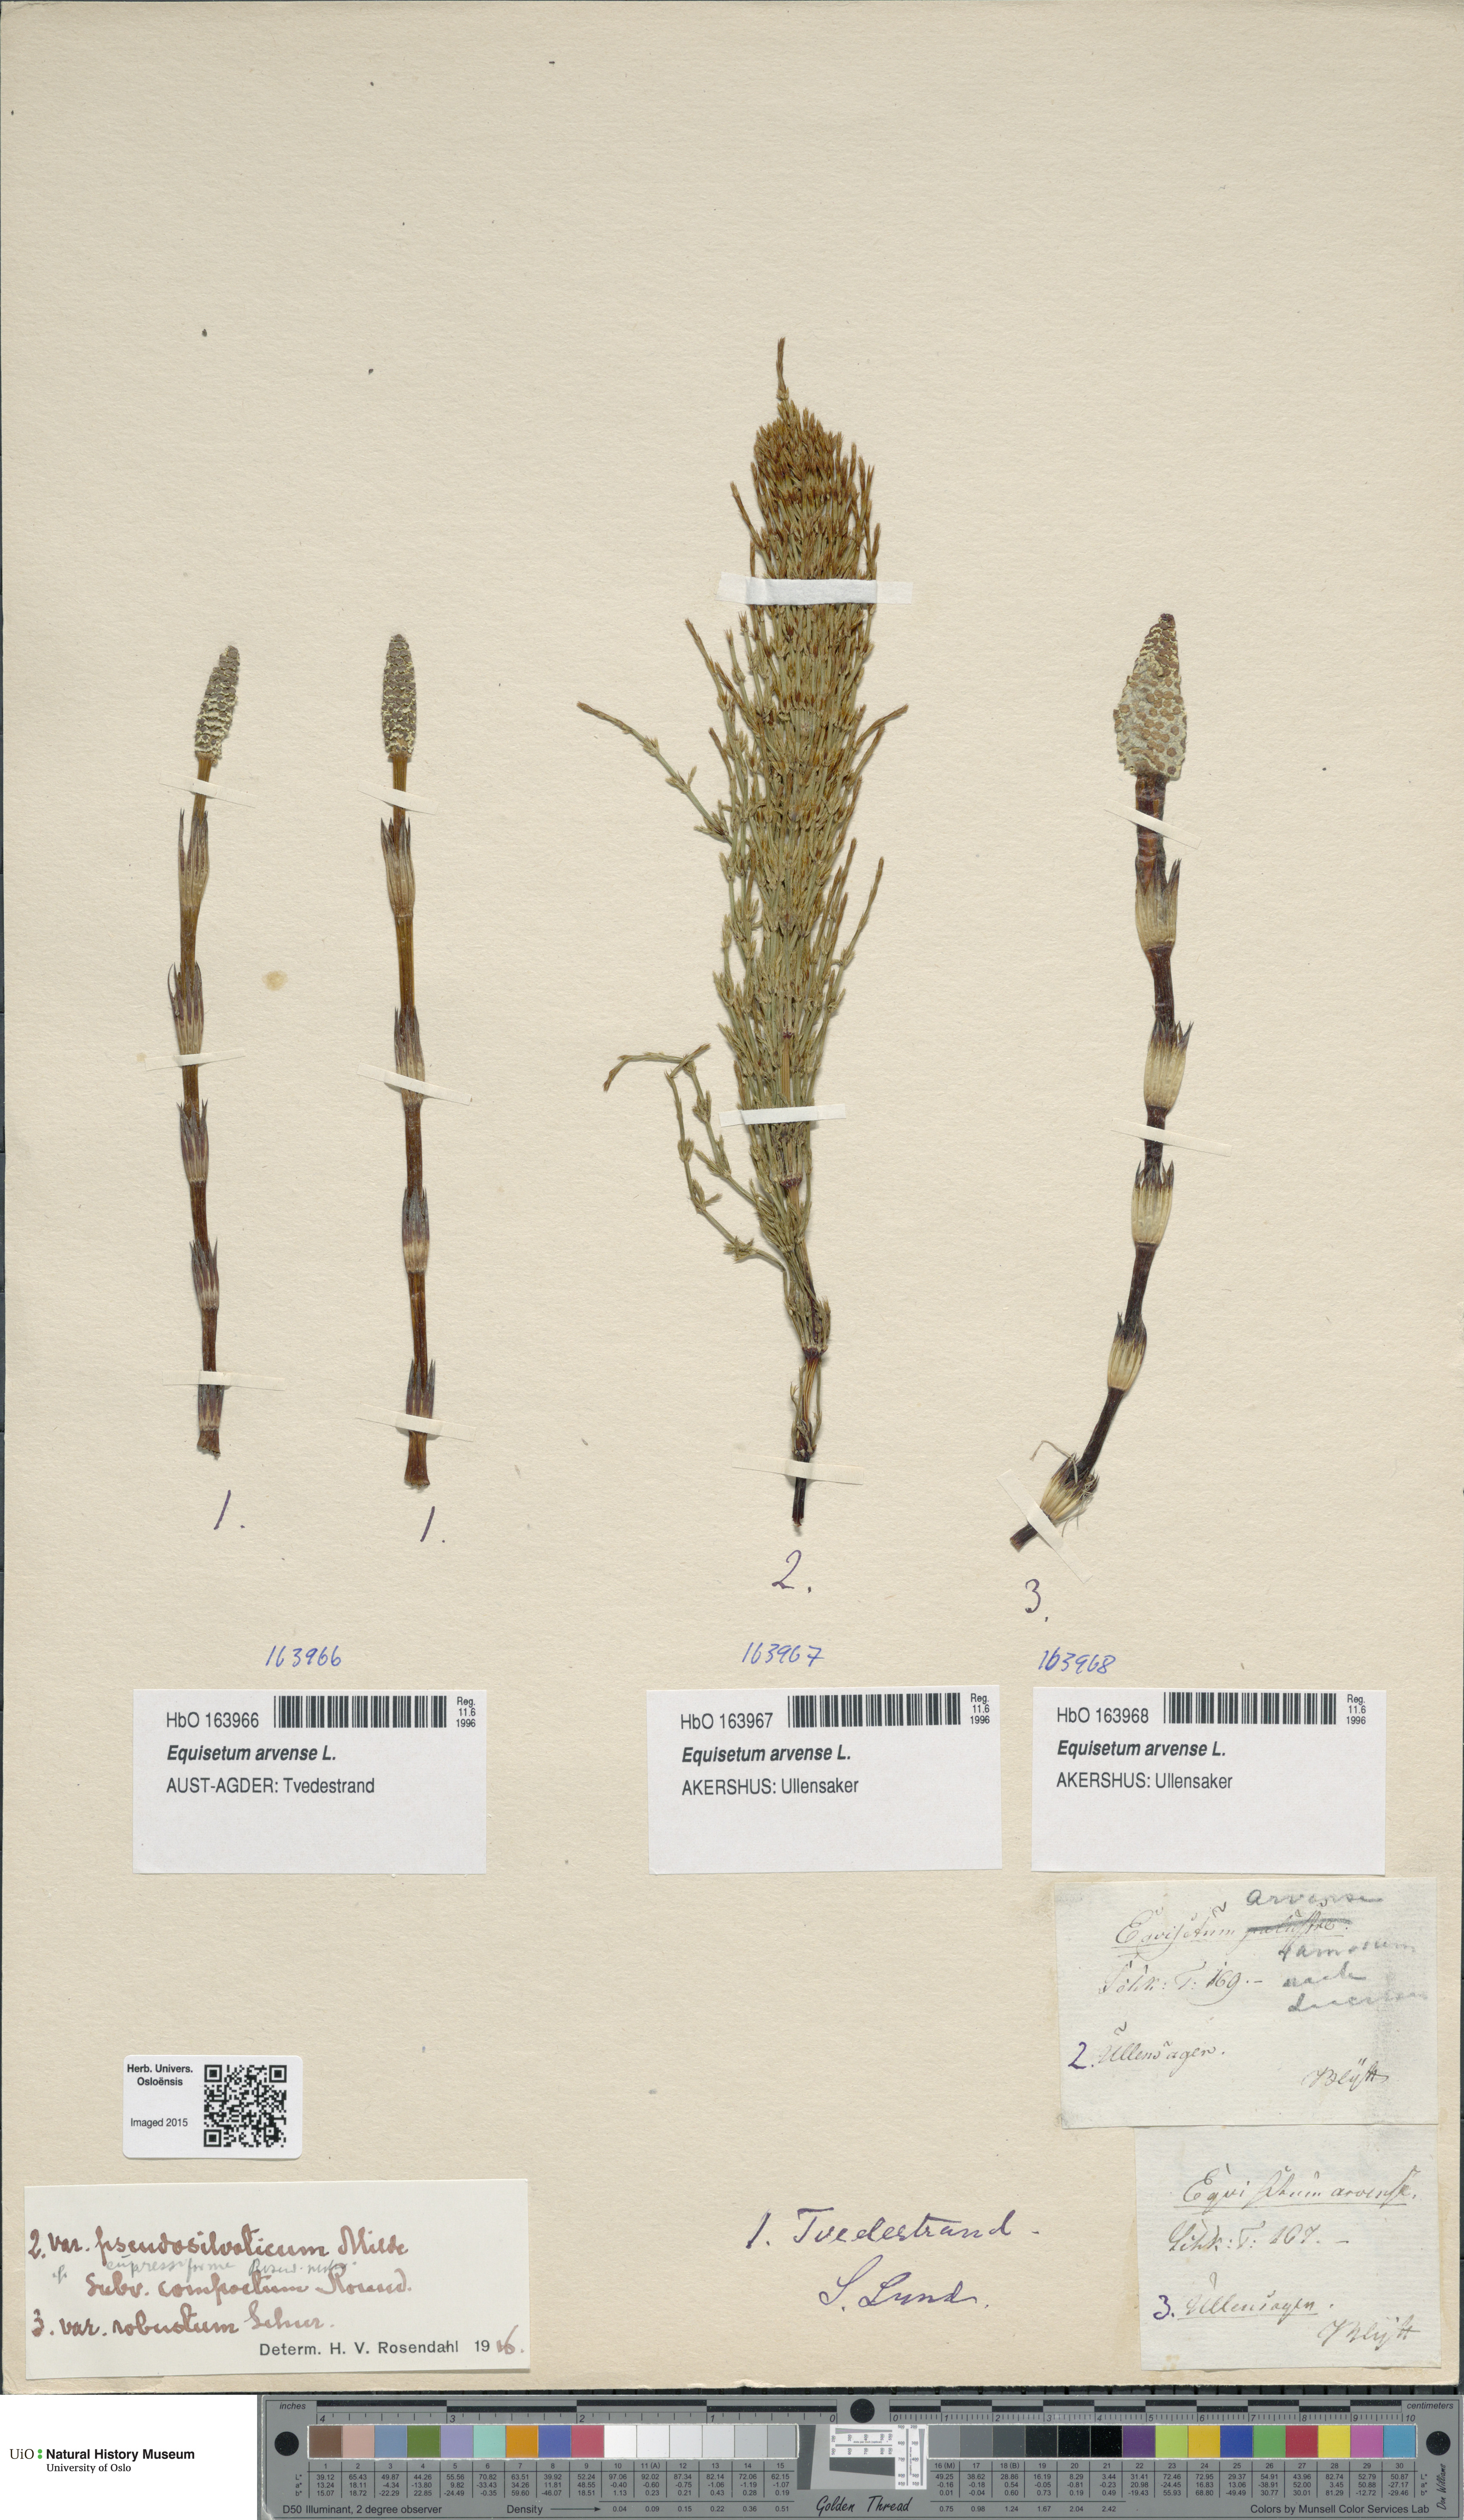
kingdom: Plantae
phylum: Tracheophyta
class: Polypodiopsida
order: Equisetales
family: Equisetaceae
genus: Equisetum
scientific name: Equisetum arvense
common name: Field horsetail
